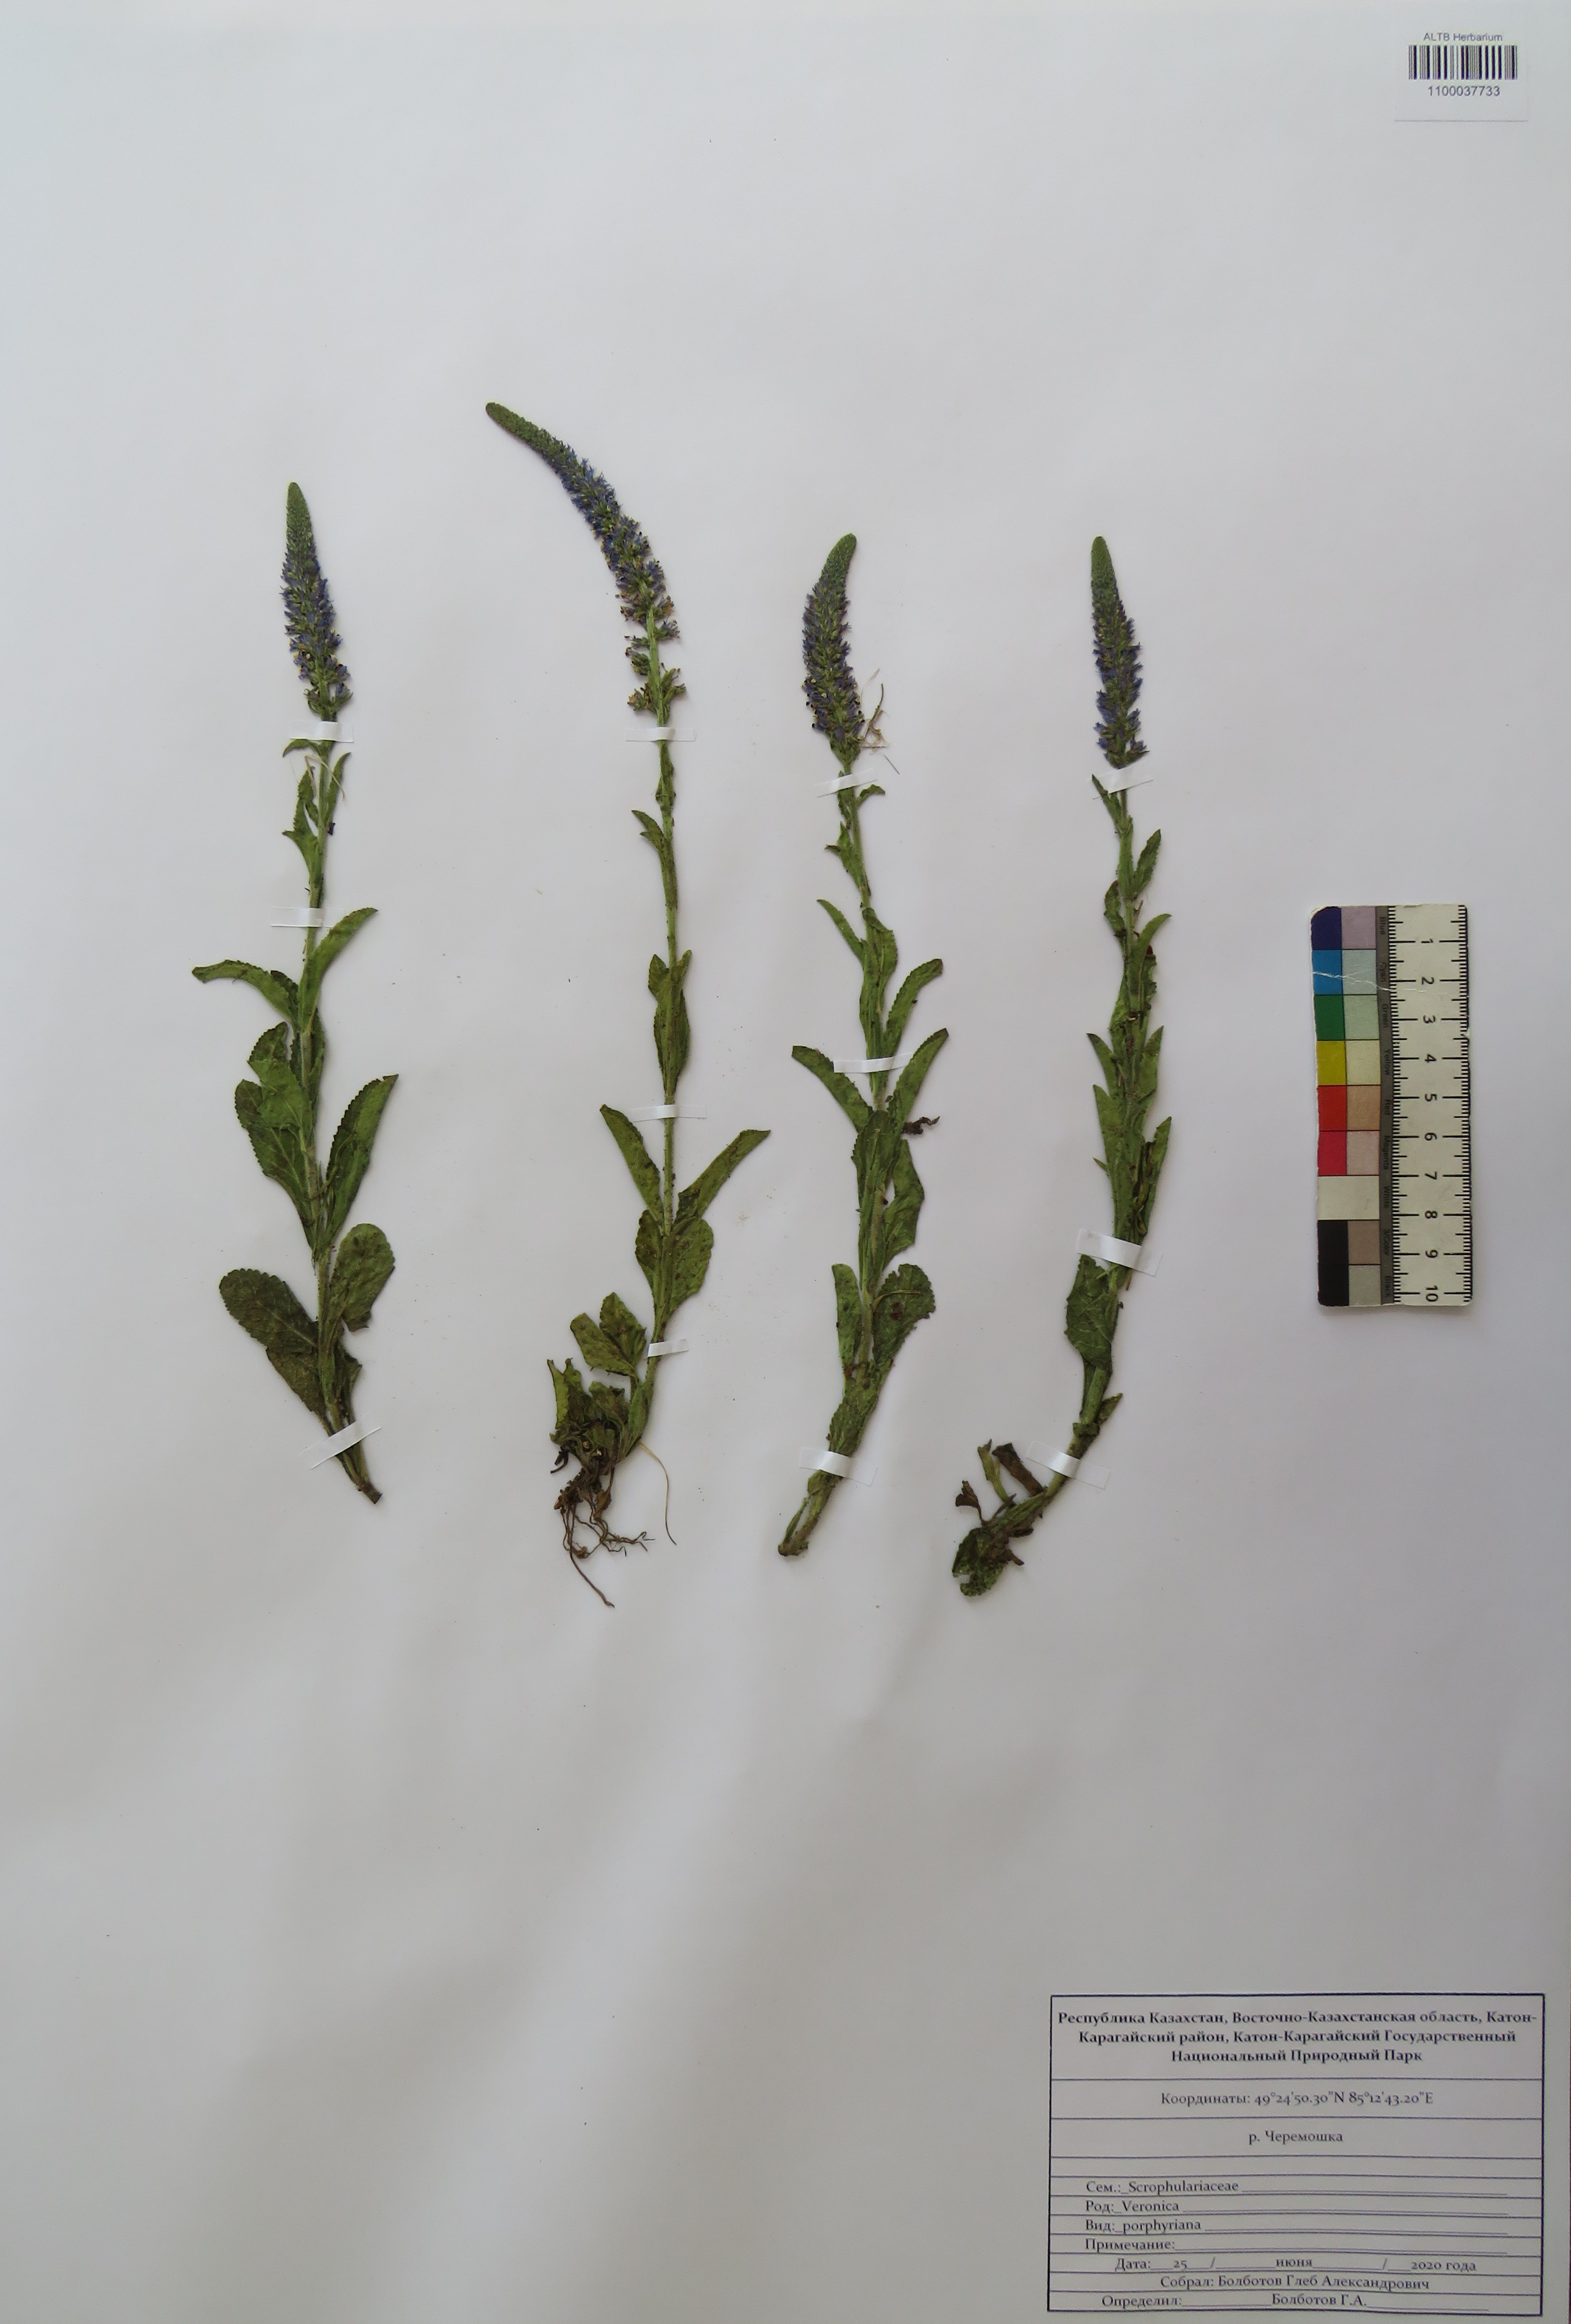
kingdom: Plantae
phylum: Tracheophyta
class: Magnoliopsida
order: Lamiales
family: Plantaginaceae
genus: Veronica
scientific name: Veronica porphyriana
